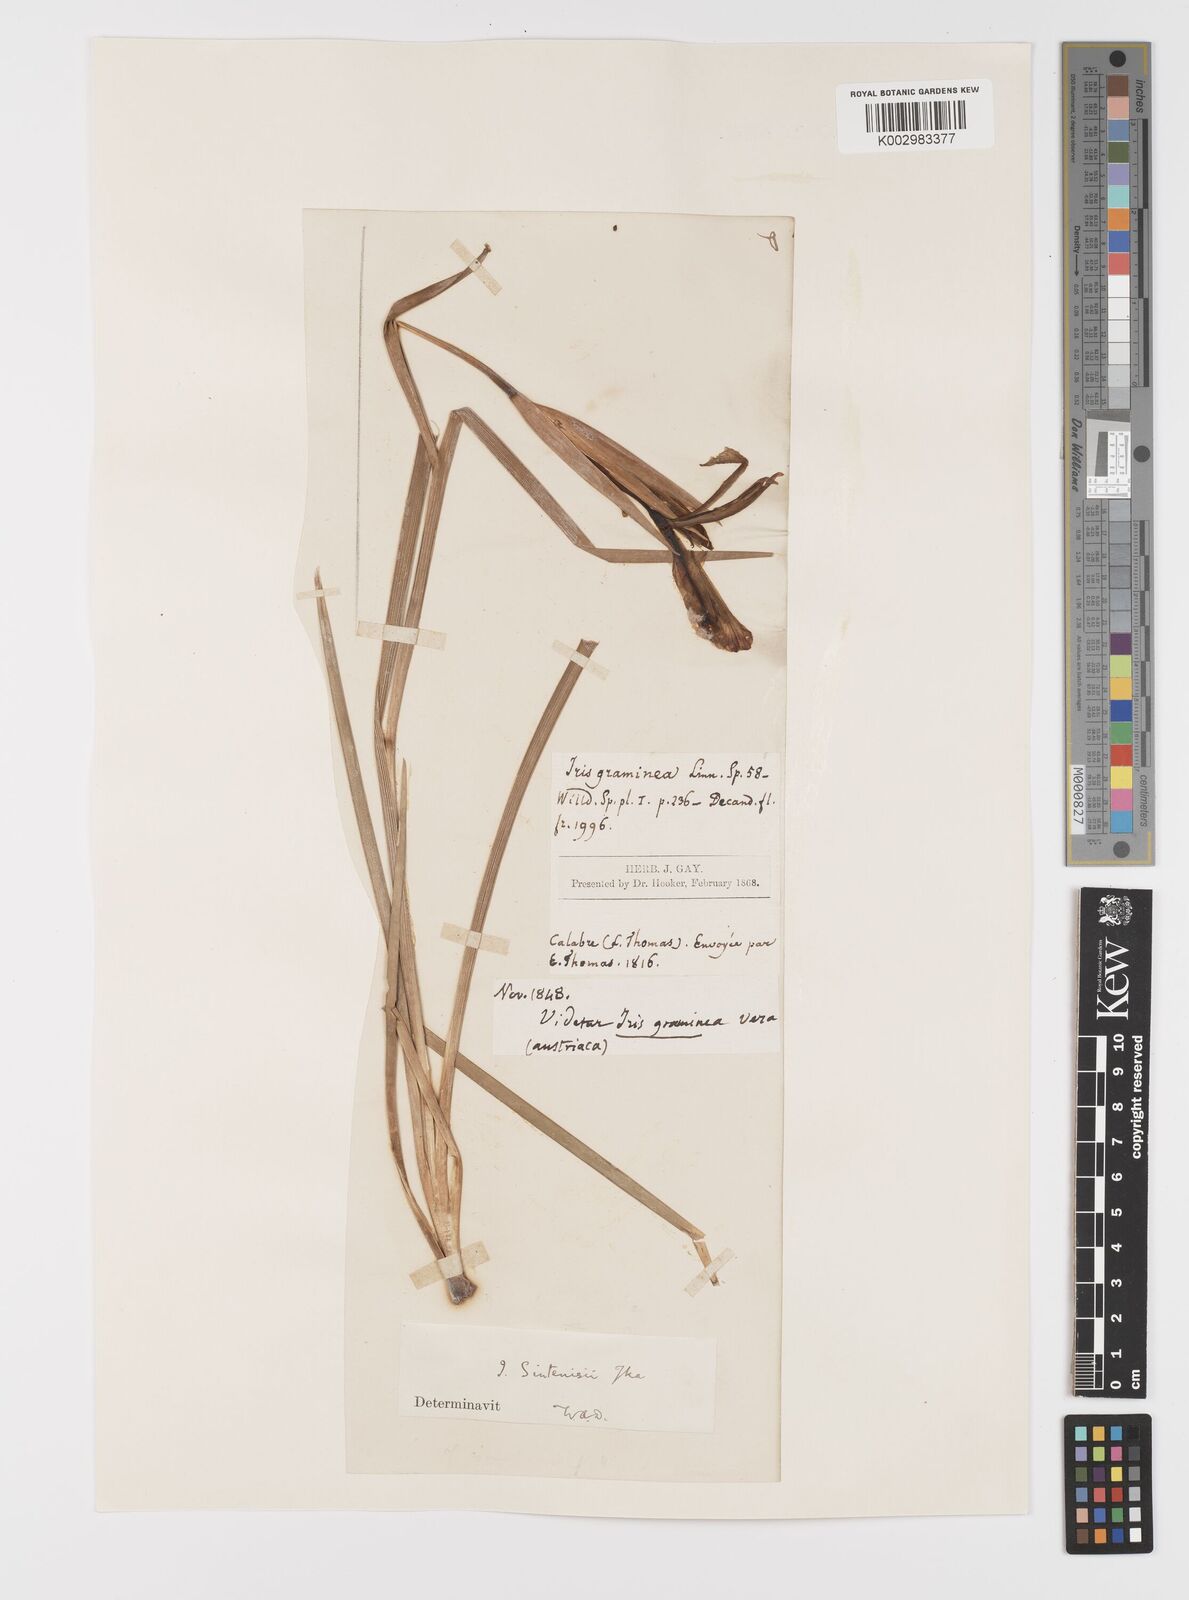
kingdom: Plantae
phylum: Tracheophyta
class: Liliopsida
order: Asparagales
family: Iridaceae
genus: Iris
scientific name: Iris
